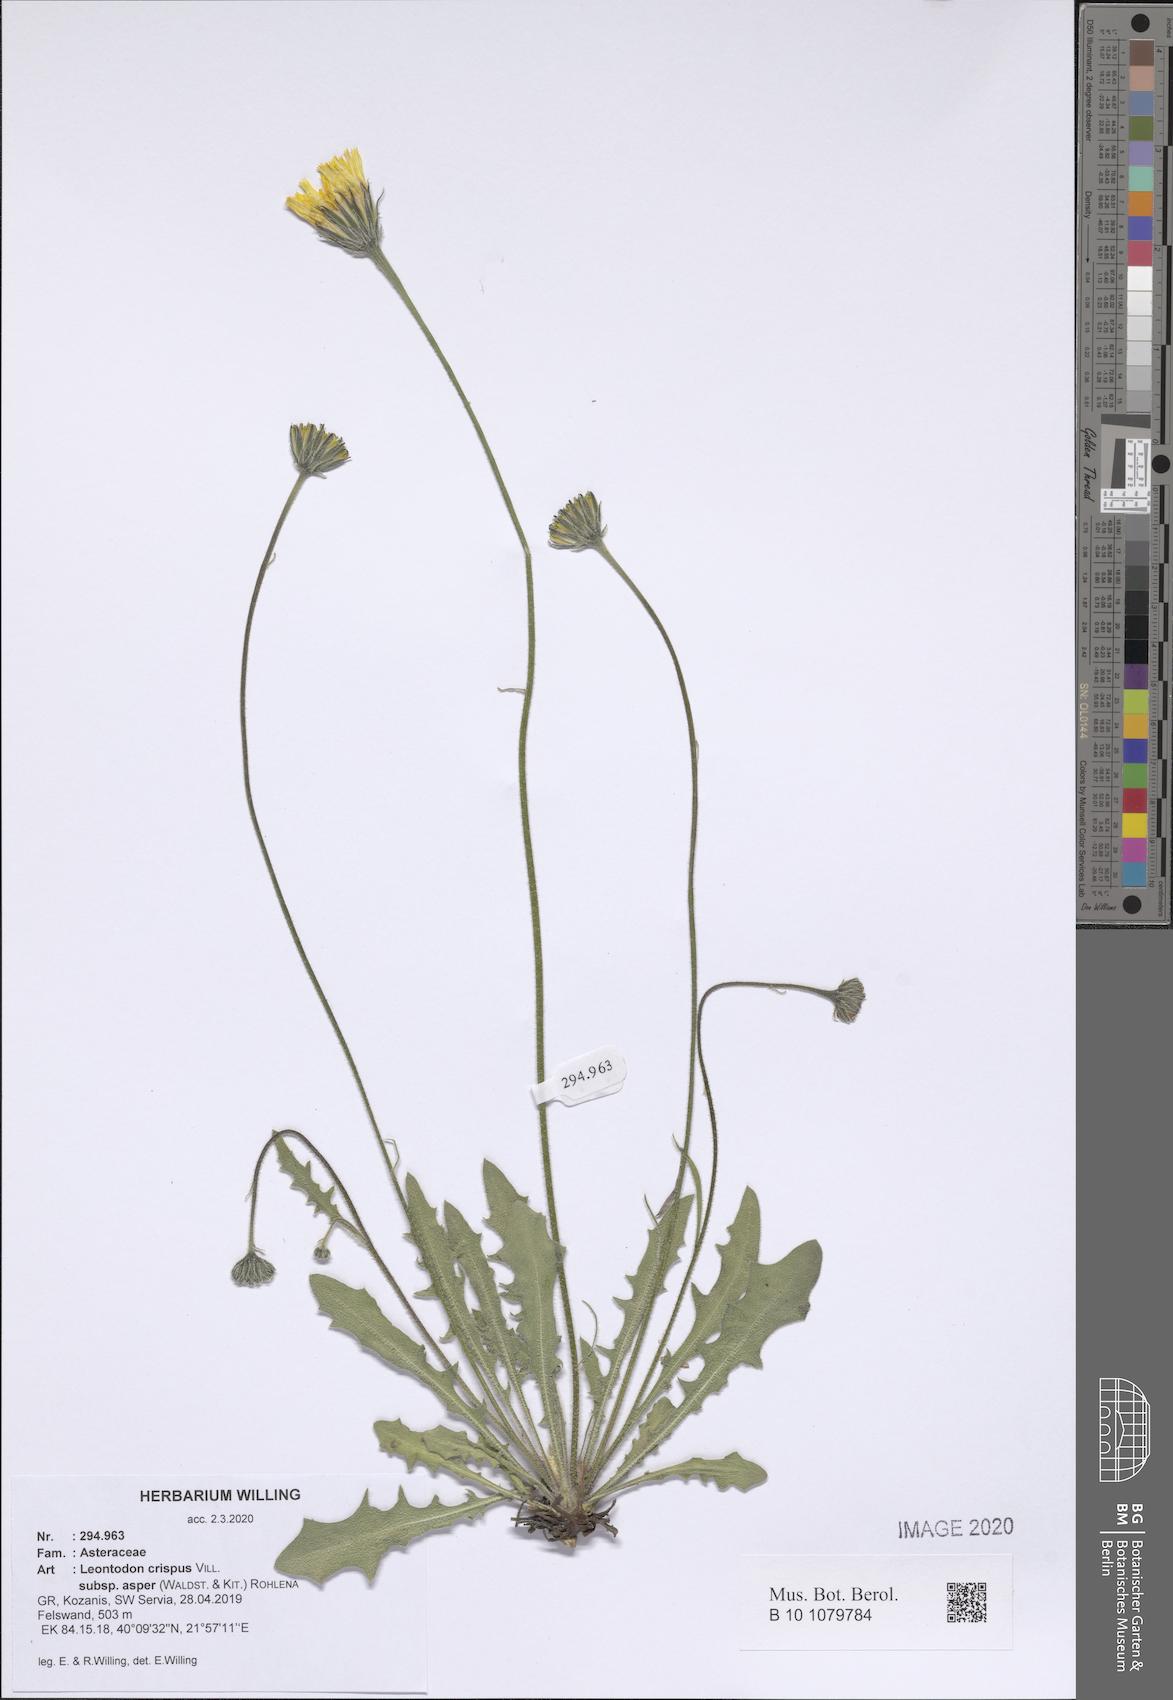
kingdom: Plantae
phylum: Tracheophyta
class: Magnoliopsida
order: Asterales
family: Asteraceae
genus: Leontodon
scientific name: Leontodon biscutellifolius
